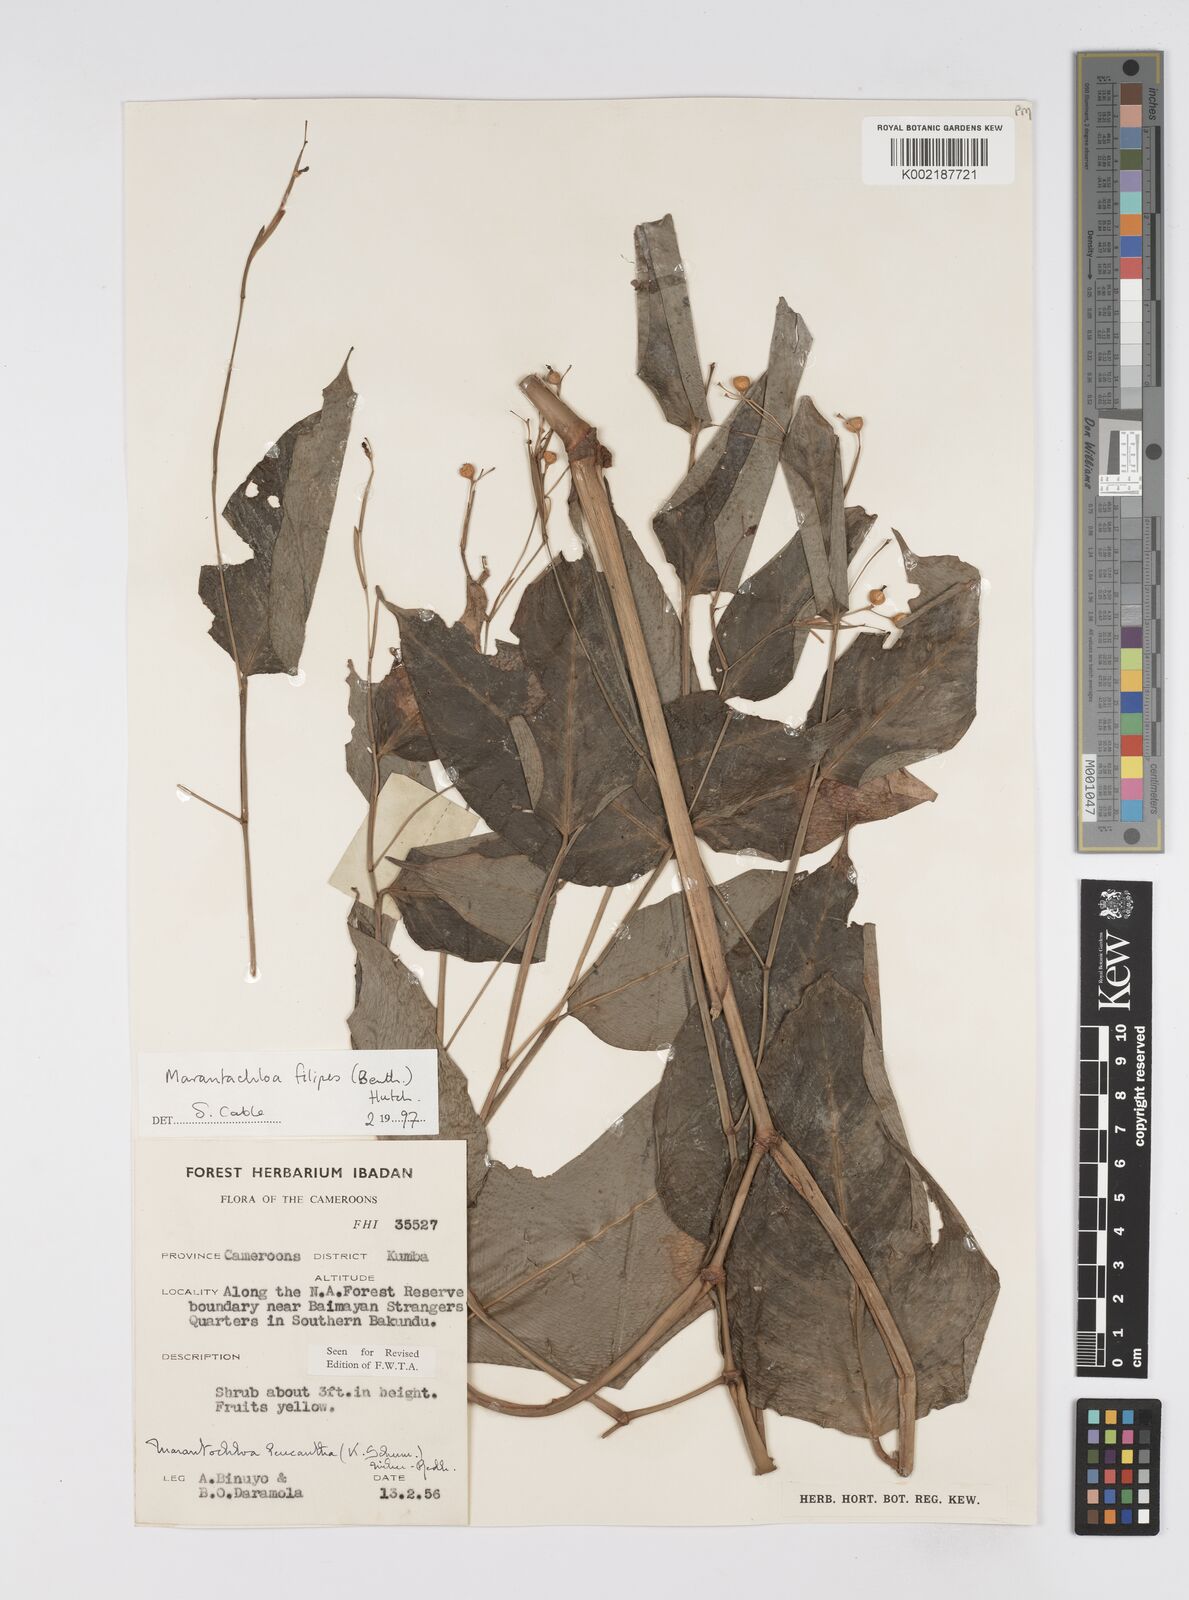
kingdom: Plantae
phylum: Tracheophyta
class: Liliopsida
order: Zingiberales
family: Marantaceae
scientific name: Marantaceae
